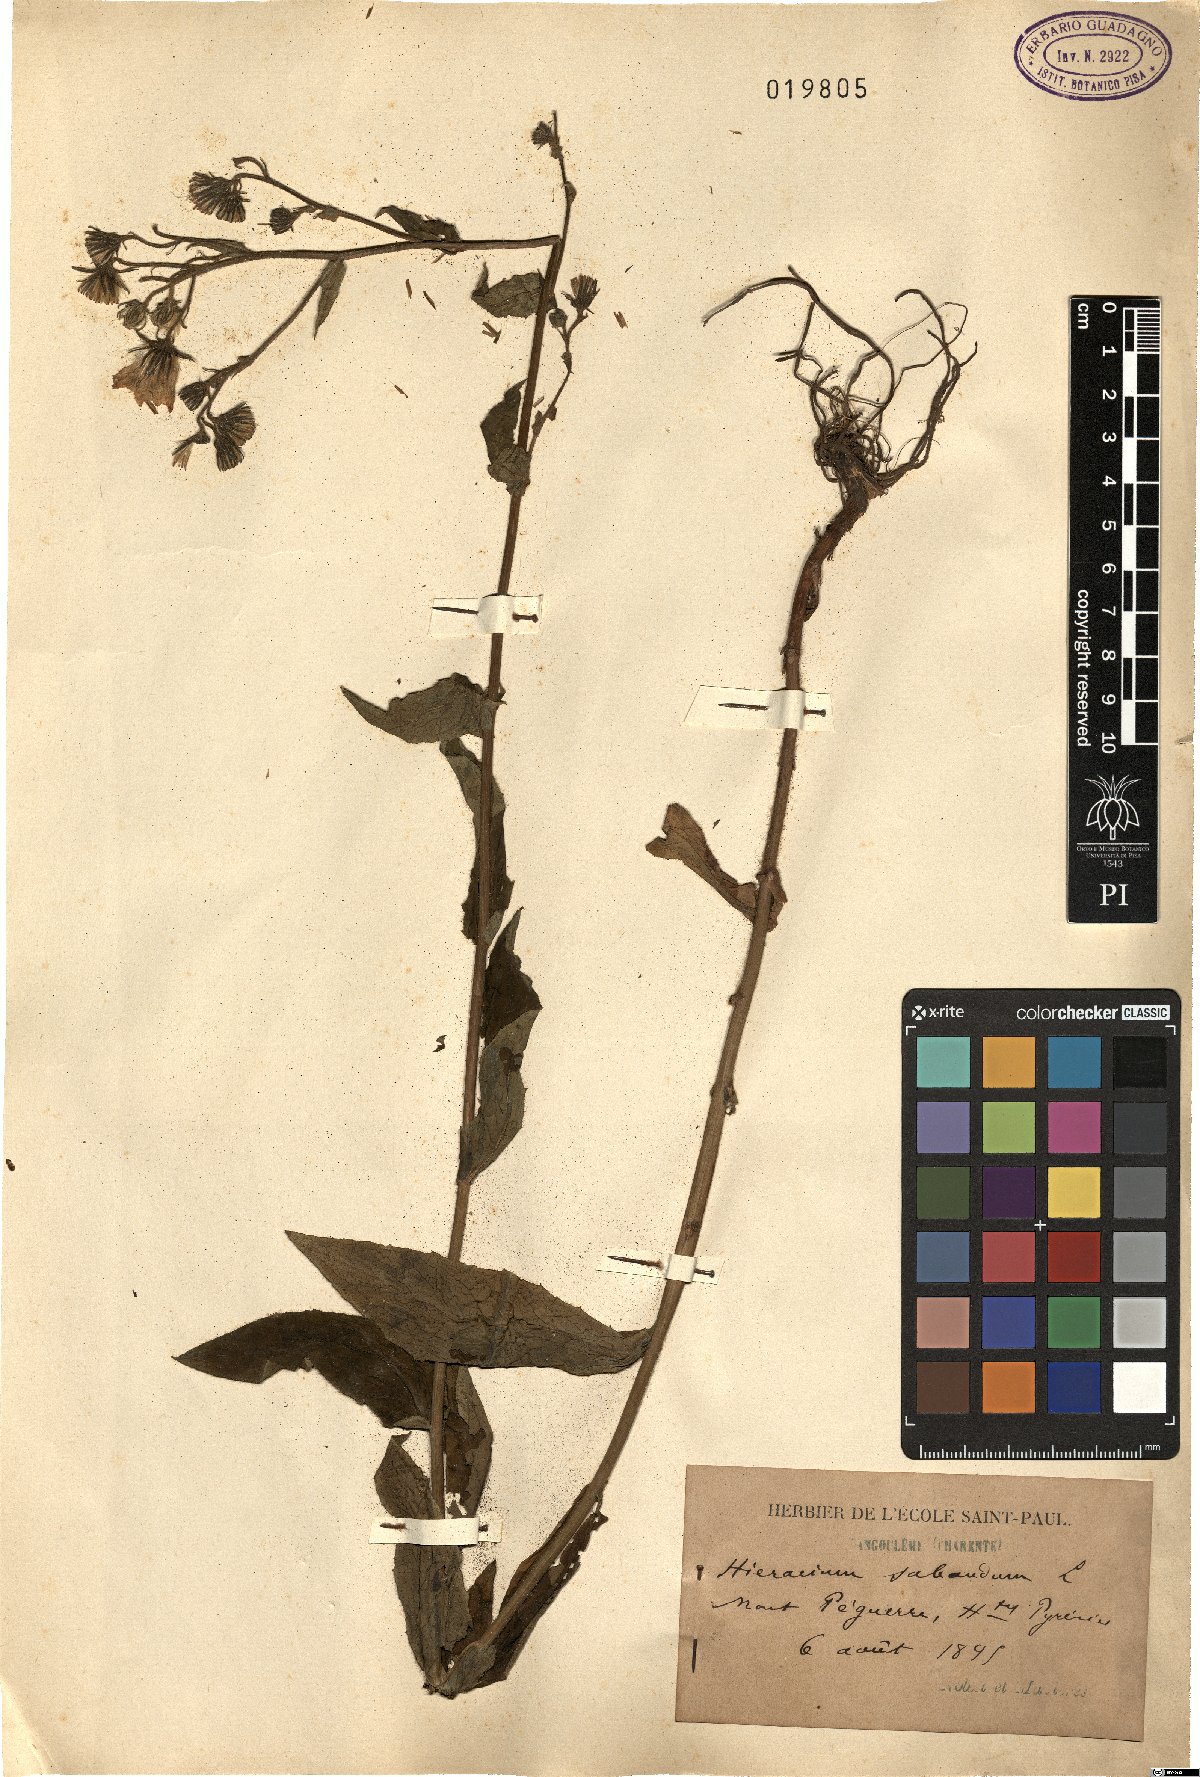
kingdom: Plantae
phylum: Tracheophyta
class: Magnoliopsida
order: Asterales
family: Asteraceae
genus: Hieracium
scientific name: Hieracium sabaudum
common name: New england hawkweed
